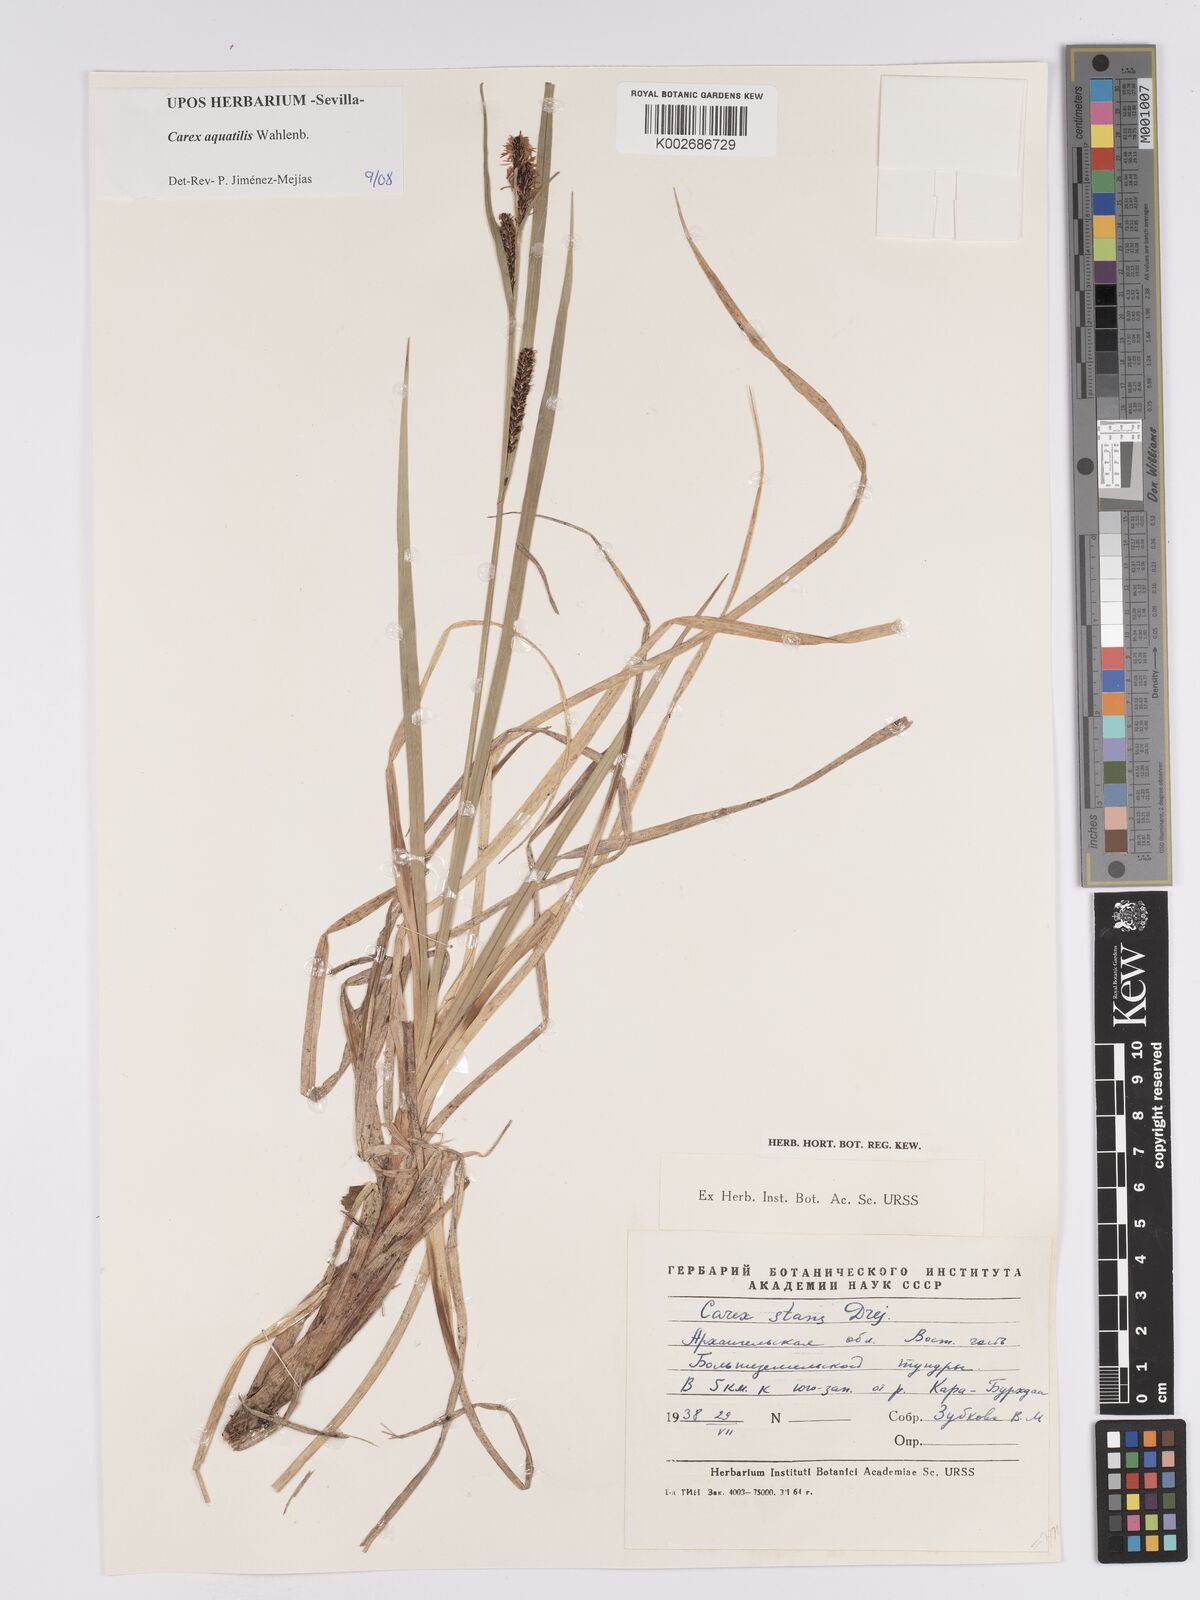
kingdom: Plantae
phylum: Tracheophyta
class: Liliopsida
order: Poales
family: Cyperaceae
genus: Carex
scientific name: Carex aquatilis
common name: Water sedge
